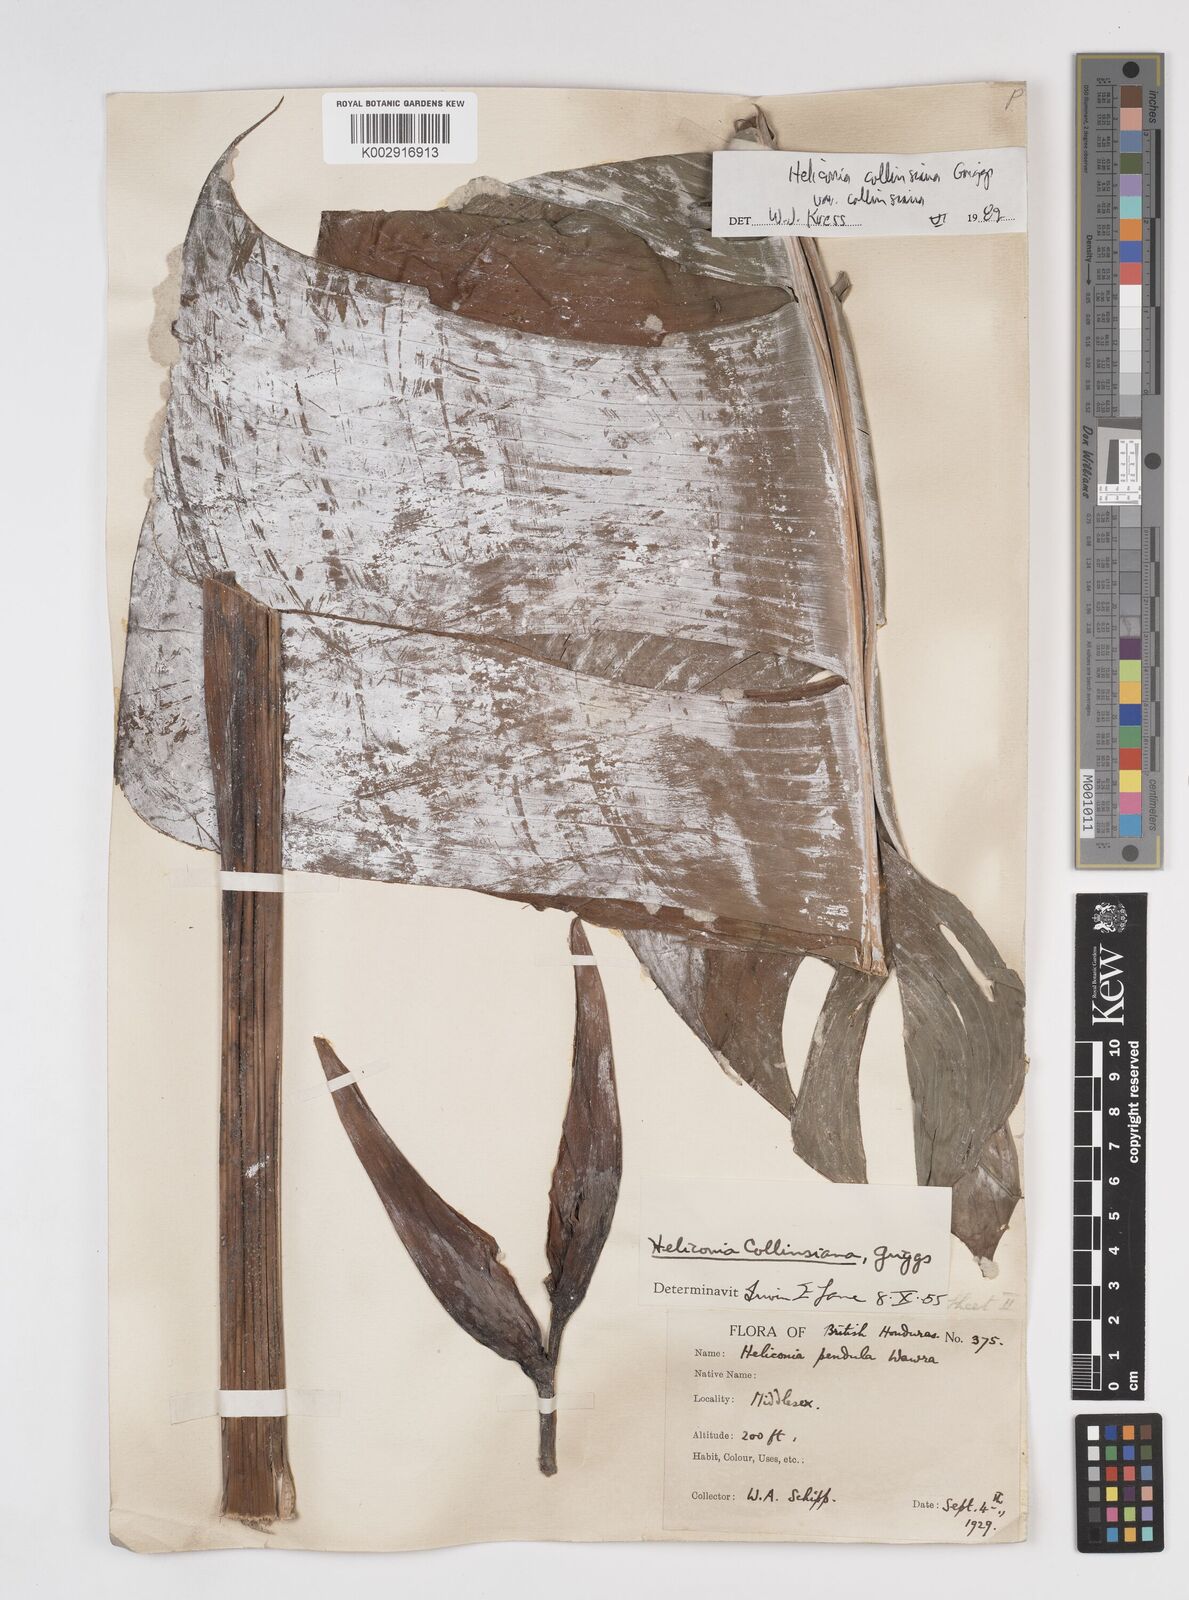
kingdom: Plantae
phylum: Tracheophyta
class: Liliopsida
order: Zingiberales
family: Heliconiaceae
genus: Heliconia
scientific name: Heliconia collinsiana
